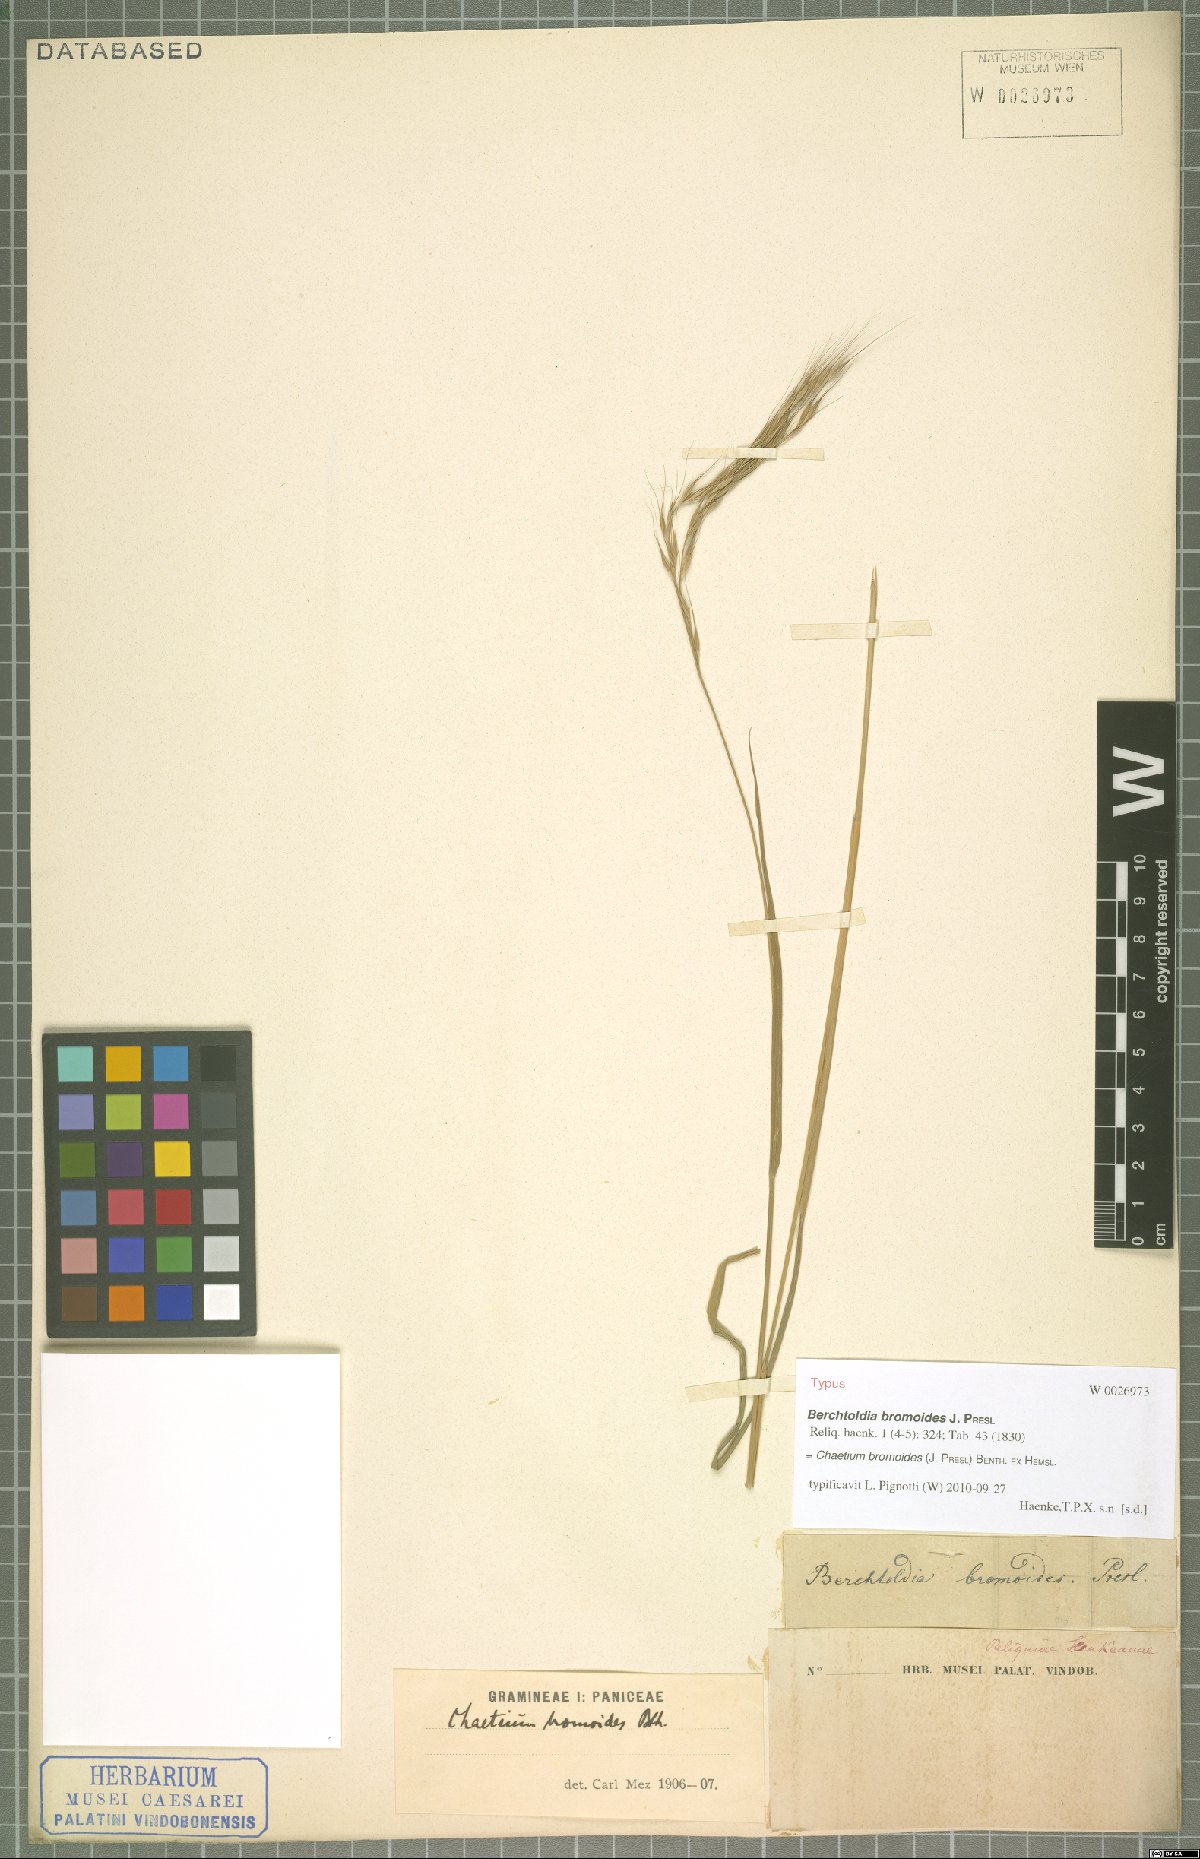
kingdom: Plantae
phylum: Tracheophyta
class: Liliopsida
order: Poales
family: Poaceae
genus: Chaetium
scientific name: Chaetium bromoides
